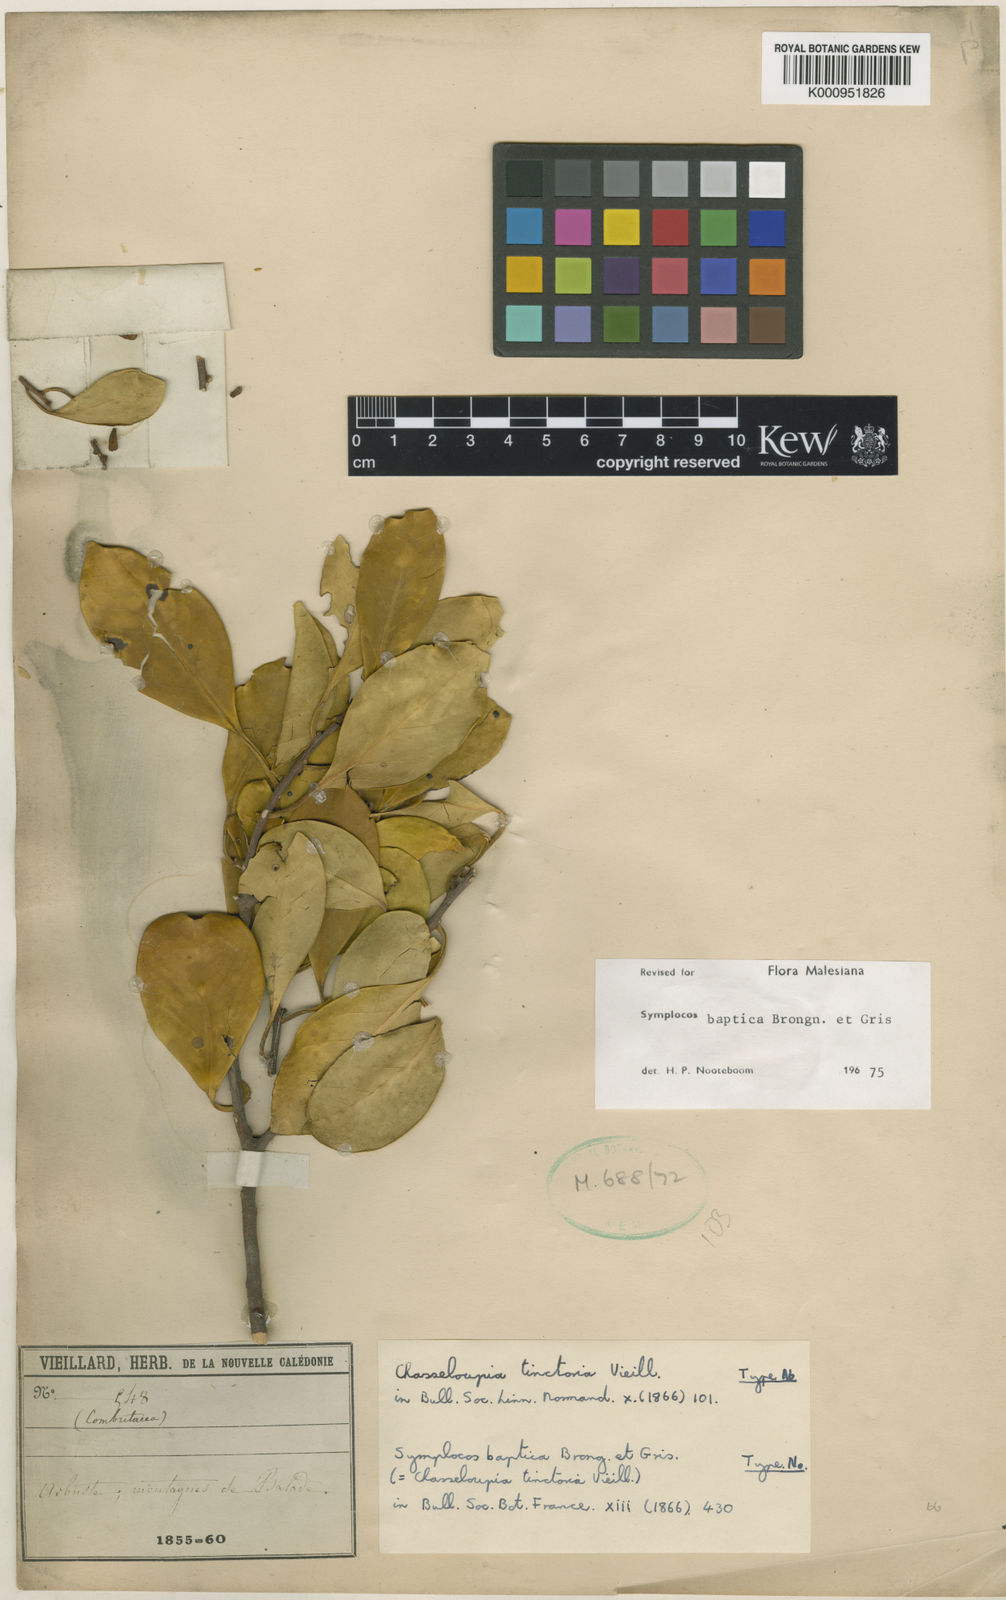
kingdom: Plantae
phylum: Tracheophyta
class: Magnoliopsida
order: Ericales
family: Symplocaceae
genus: Symplocos
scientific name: Symplocos montana
